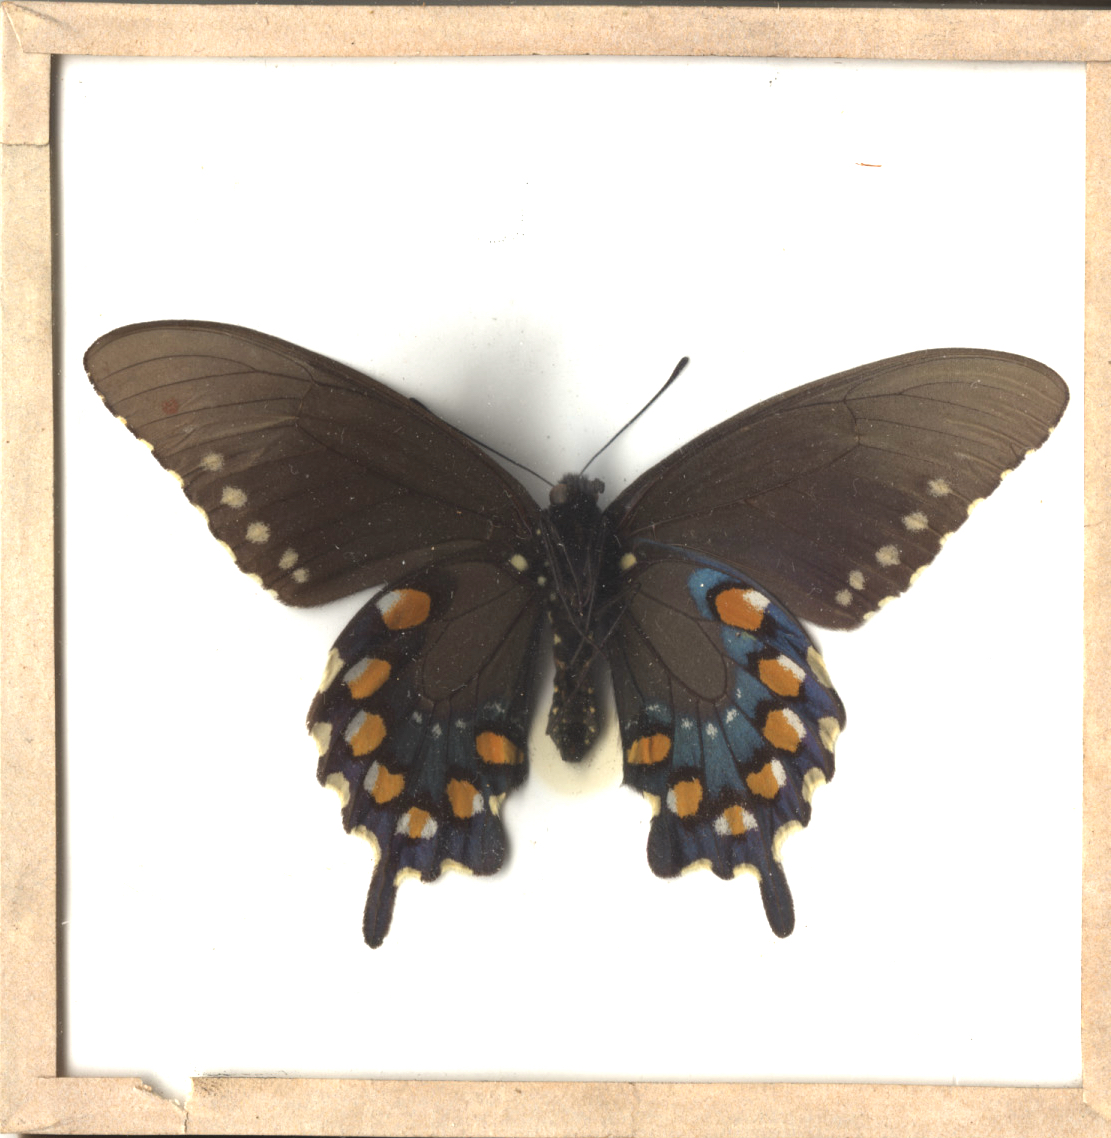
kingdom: Animalia
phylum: Arthropoda
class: Insecta
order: Lepidoptera
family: Papilionidae
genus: Battus
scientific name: Battus philenor
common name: Pipevine Swallowtail
